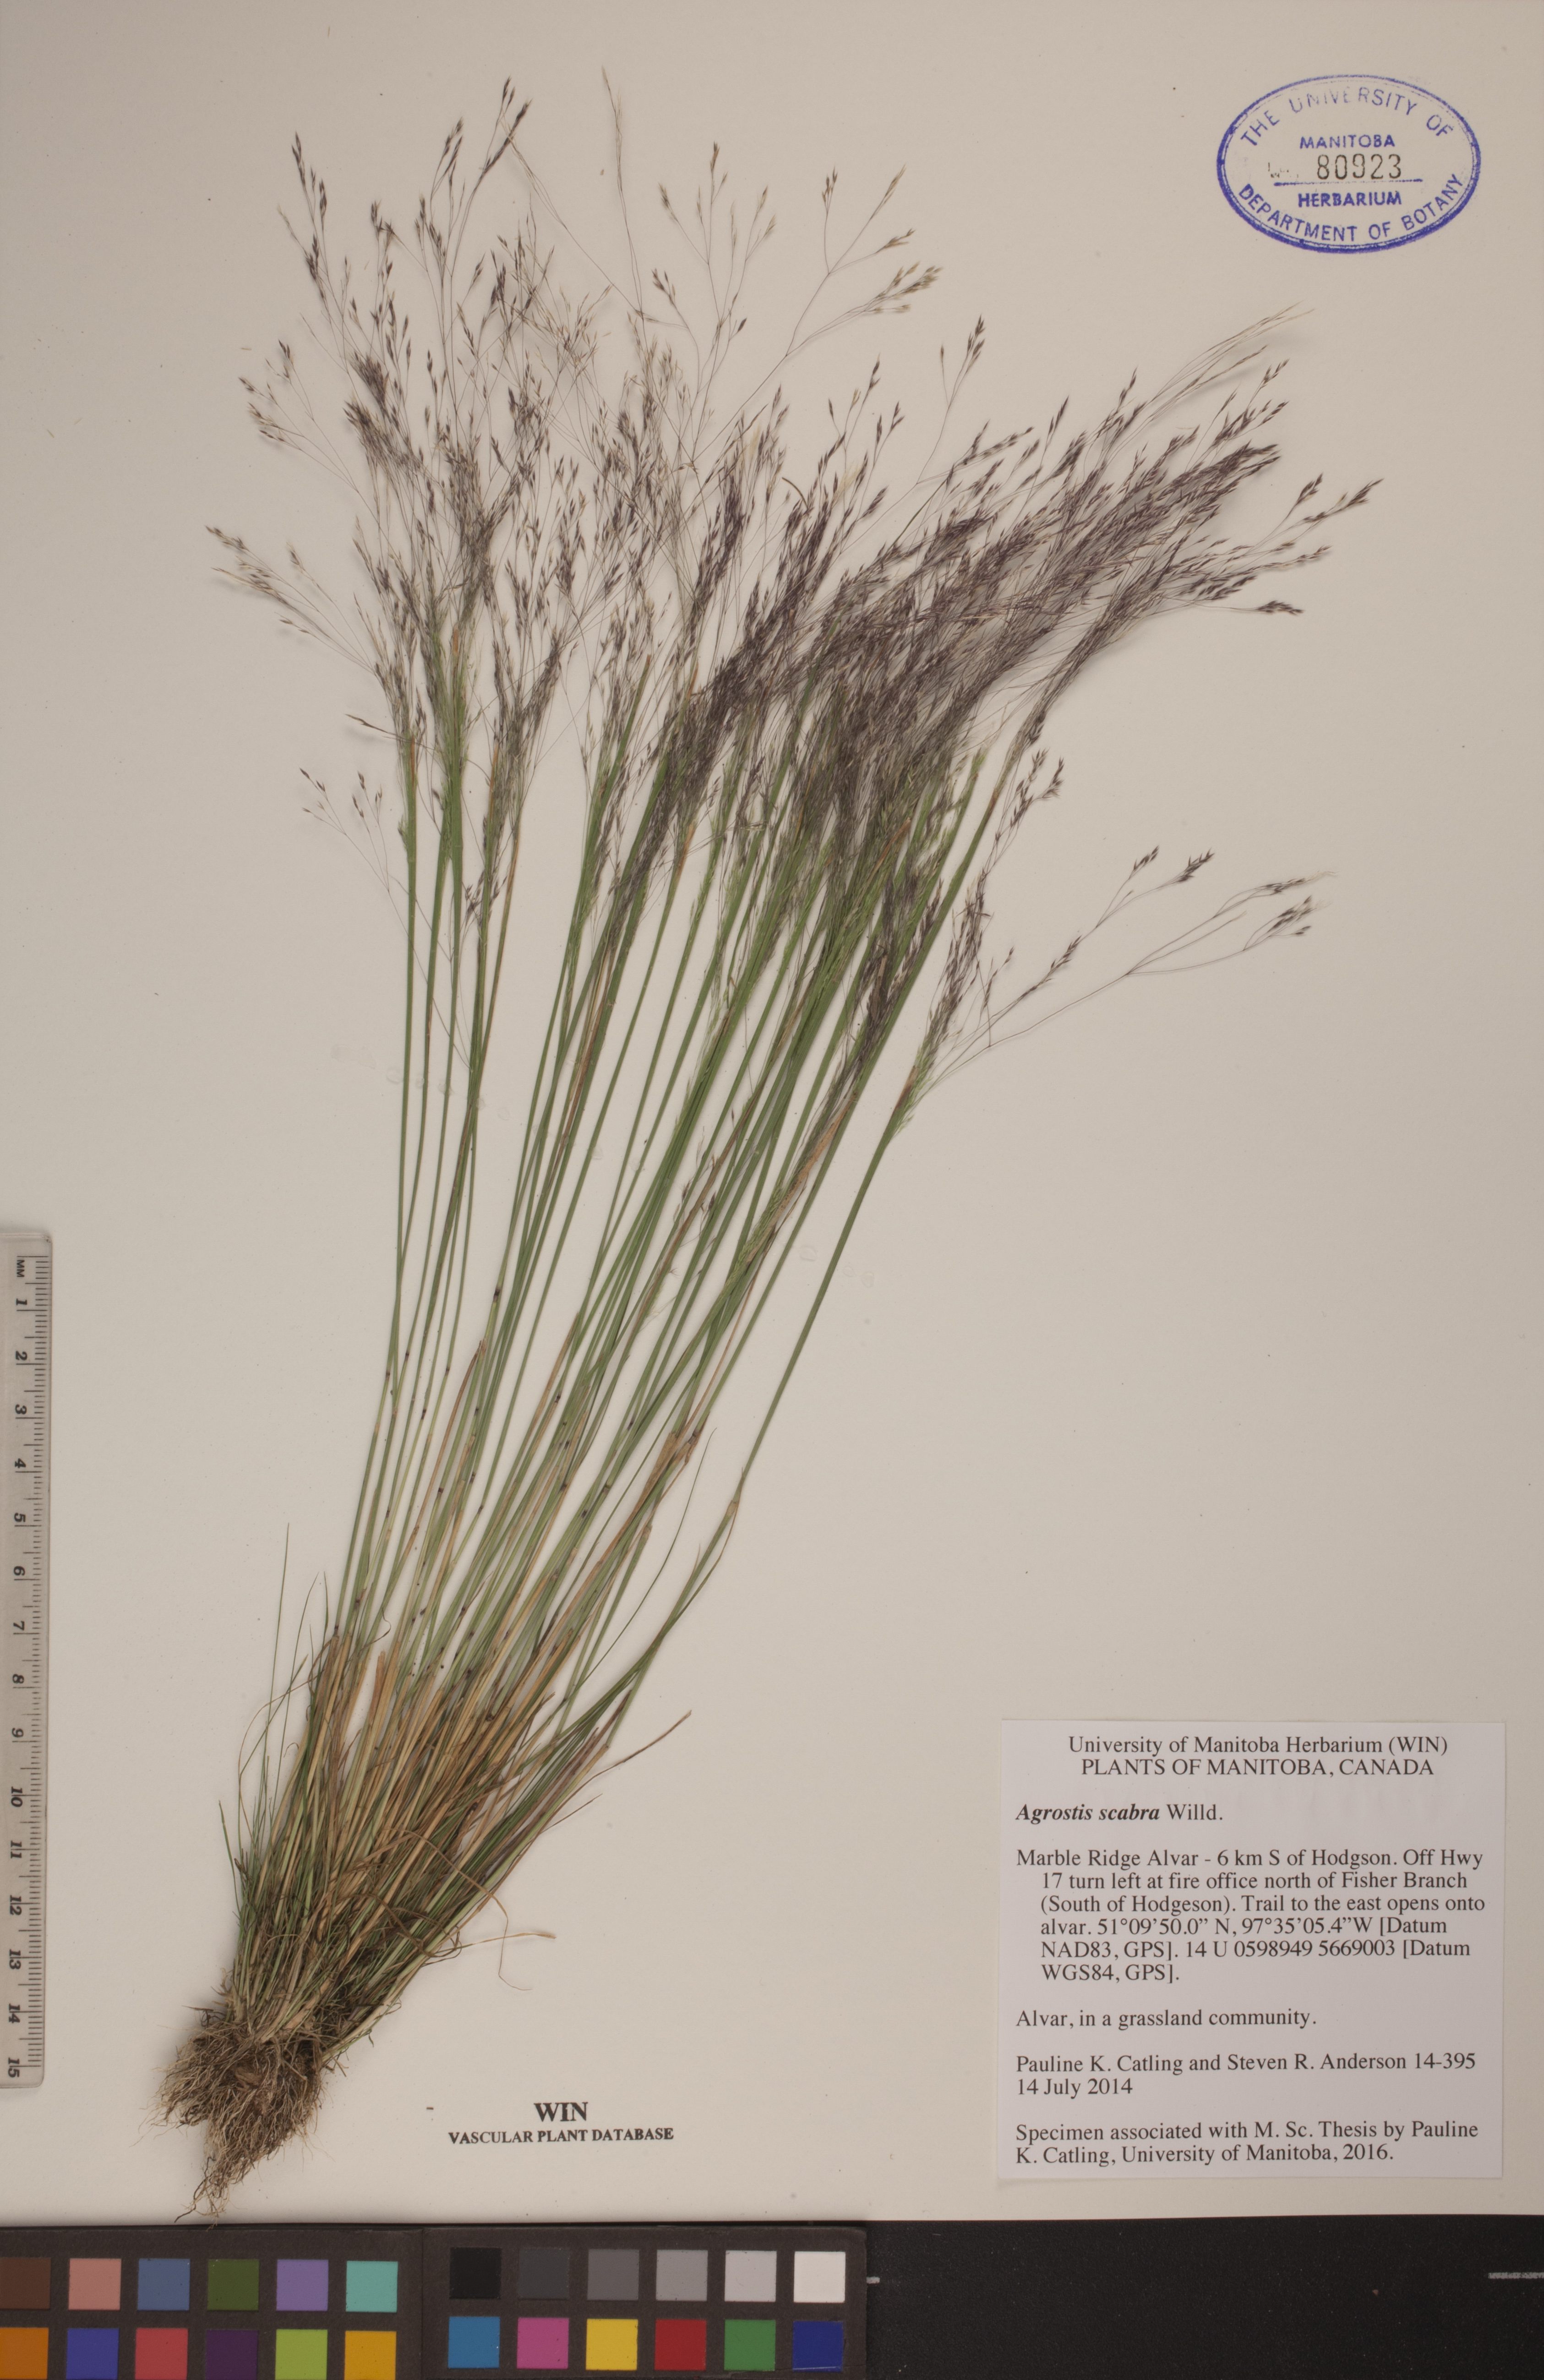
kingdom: Plantae
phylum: Tracheophyta
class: Liliopsida
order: Poales
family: Poaceae
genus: Agrostis
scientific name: Agrostis scabra
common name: Rough bent
